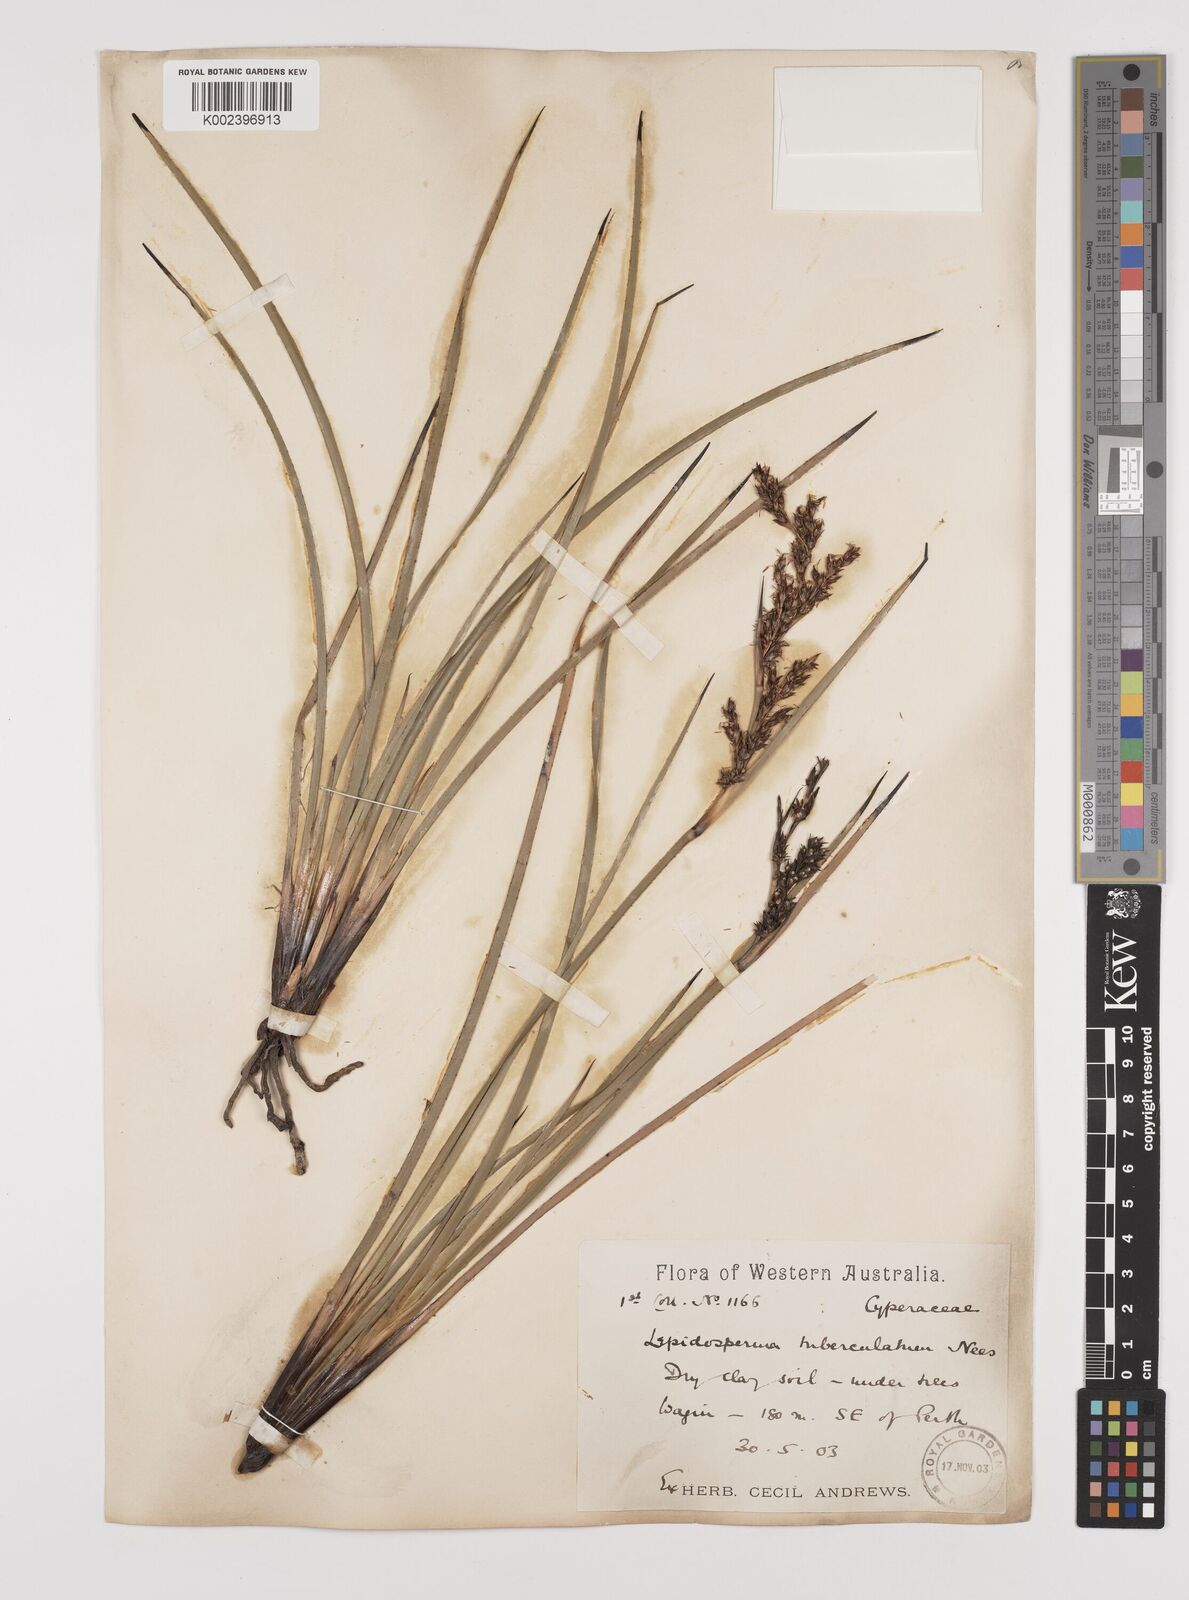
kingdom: Plantae
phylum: Tracheophyta
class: Liliopsida
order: Poales
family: Cyperaceae
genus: Lepidosperma
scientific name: Lepidosperma tuberculatum
